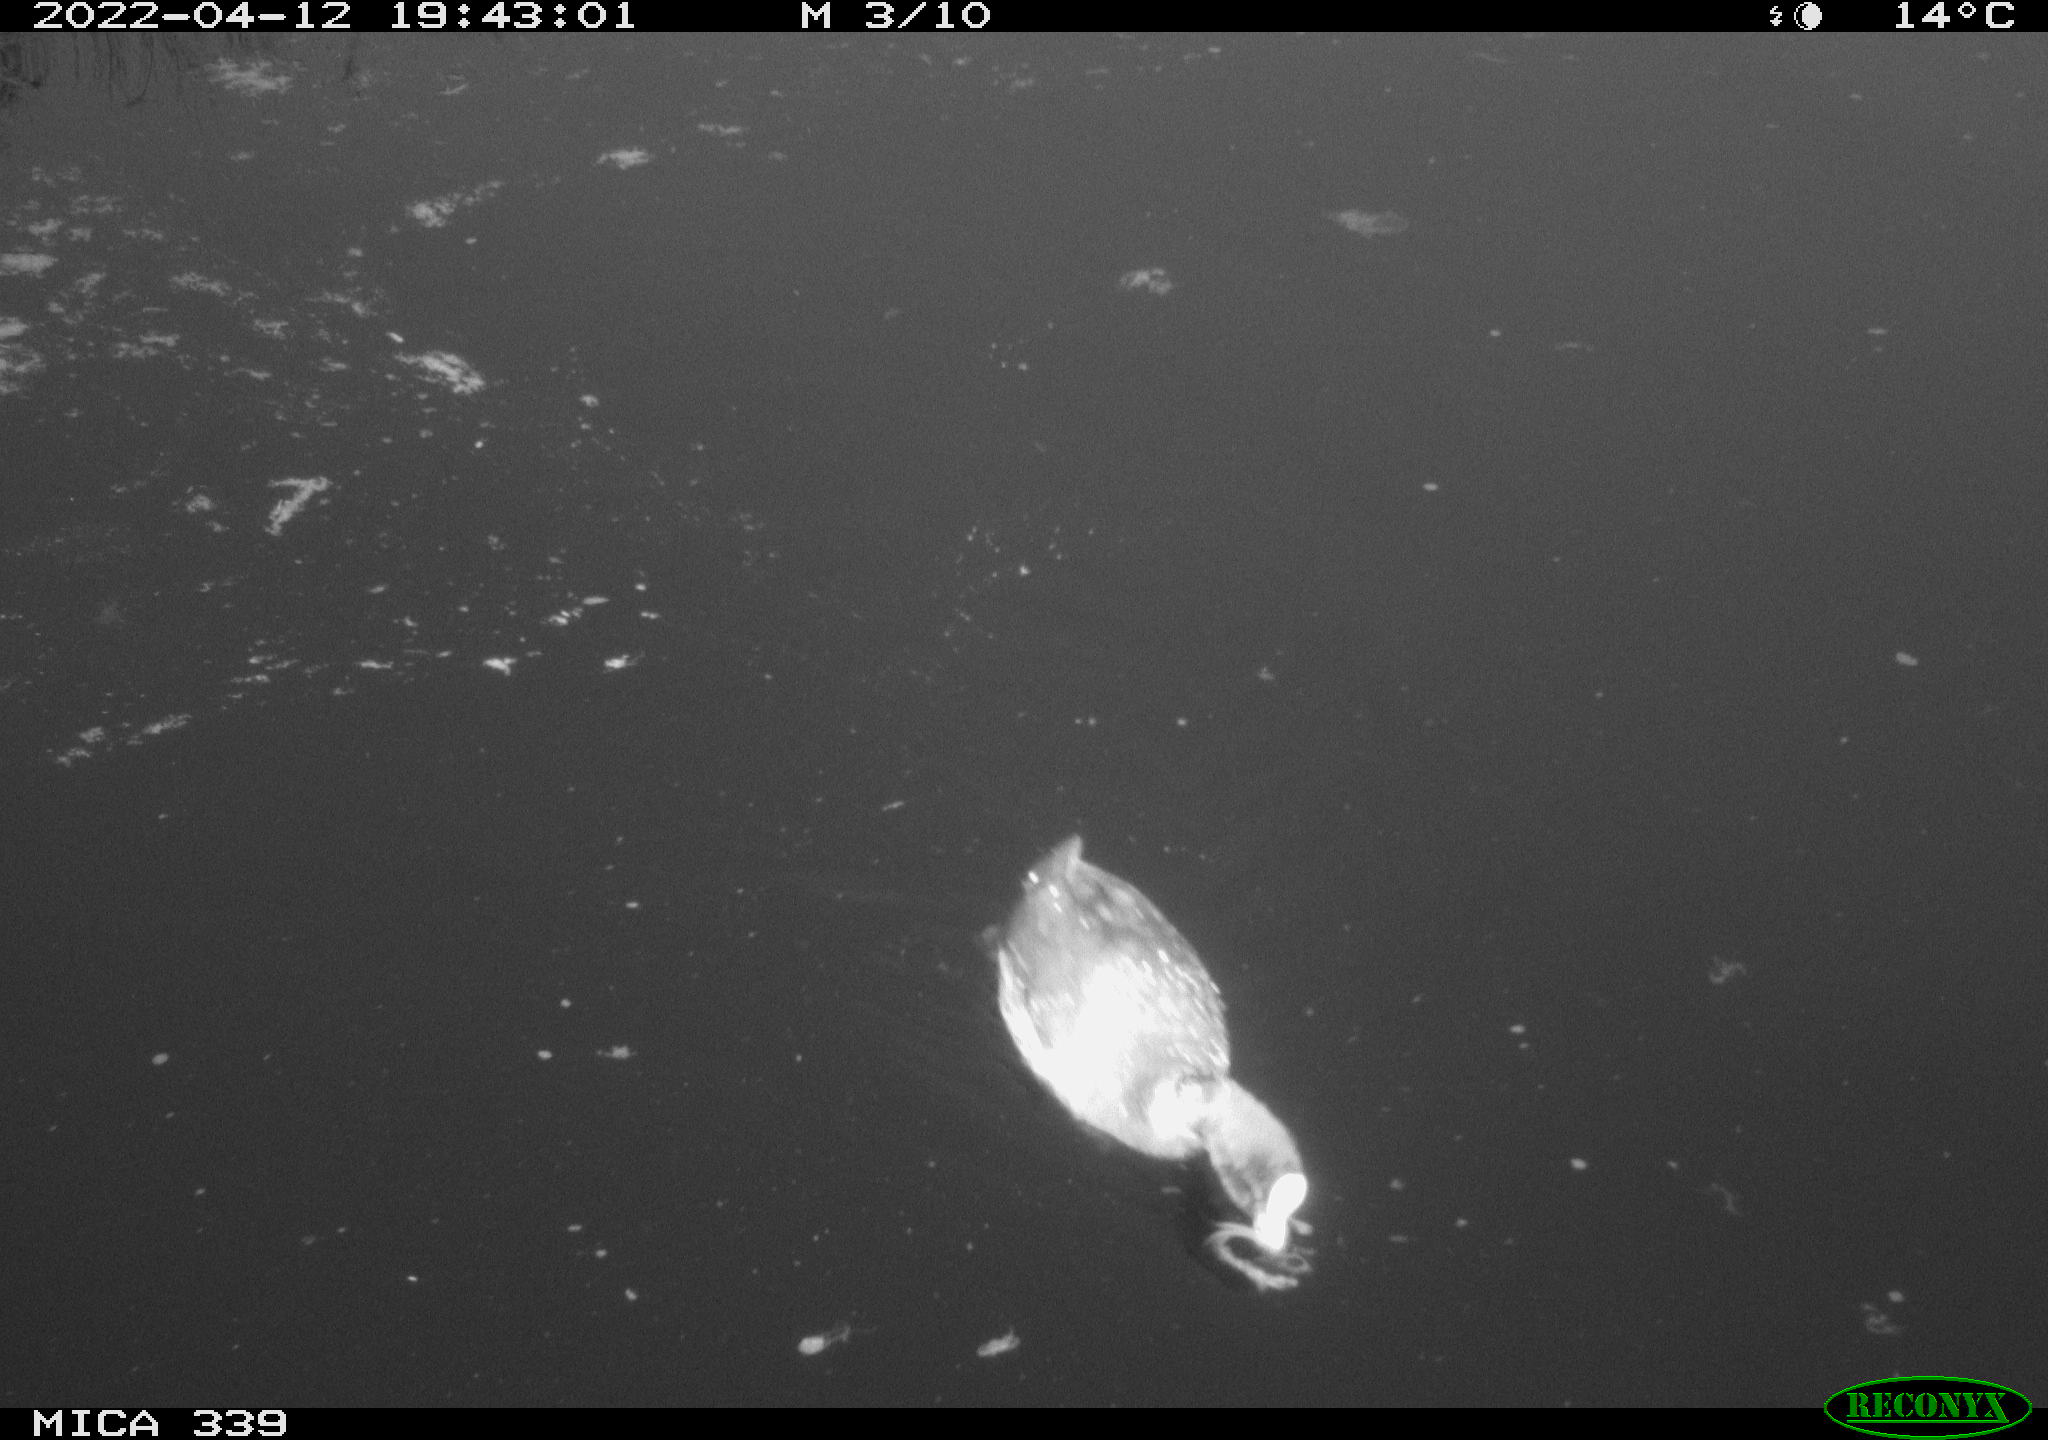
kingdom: Animalia
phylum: Chordata
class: Aves
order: Gruiformes
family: Rallidae
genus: Fulica
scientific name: Fulica atra
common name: Eurasian coot
